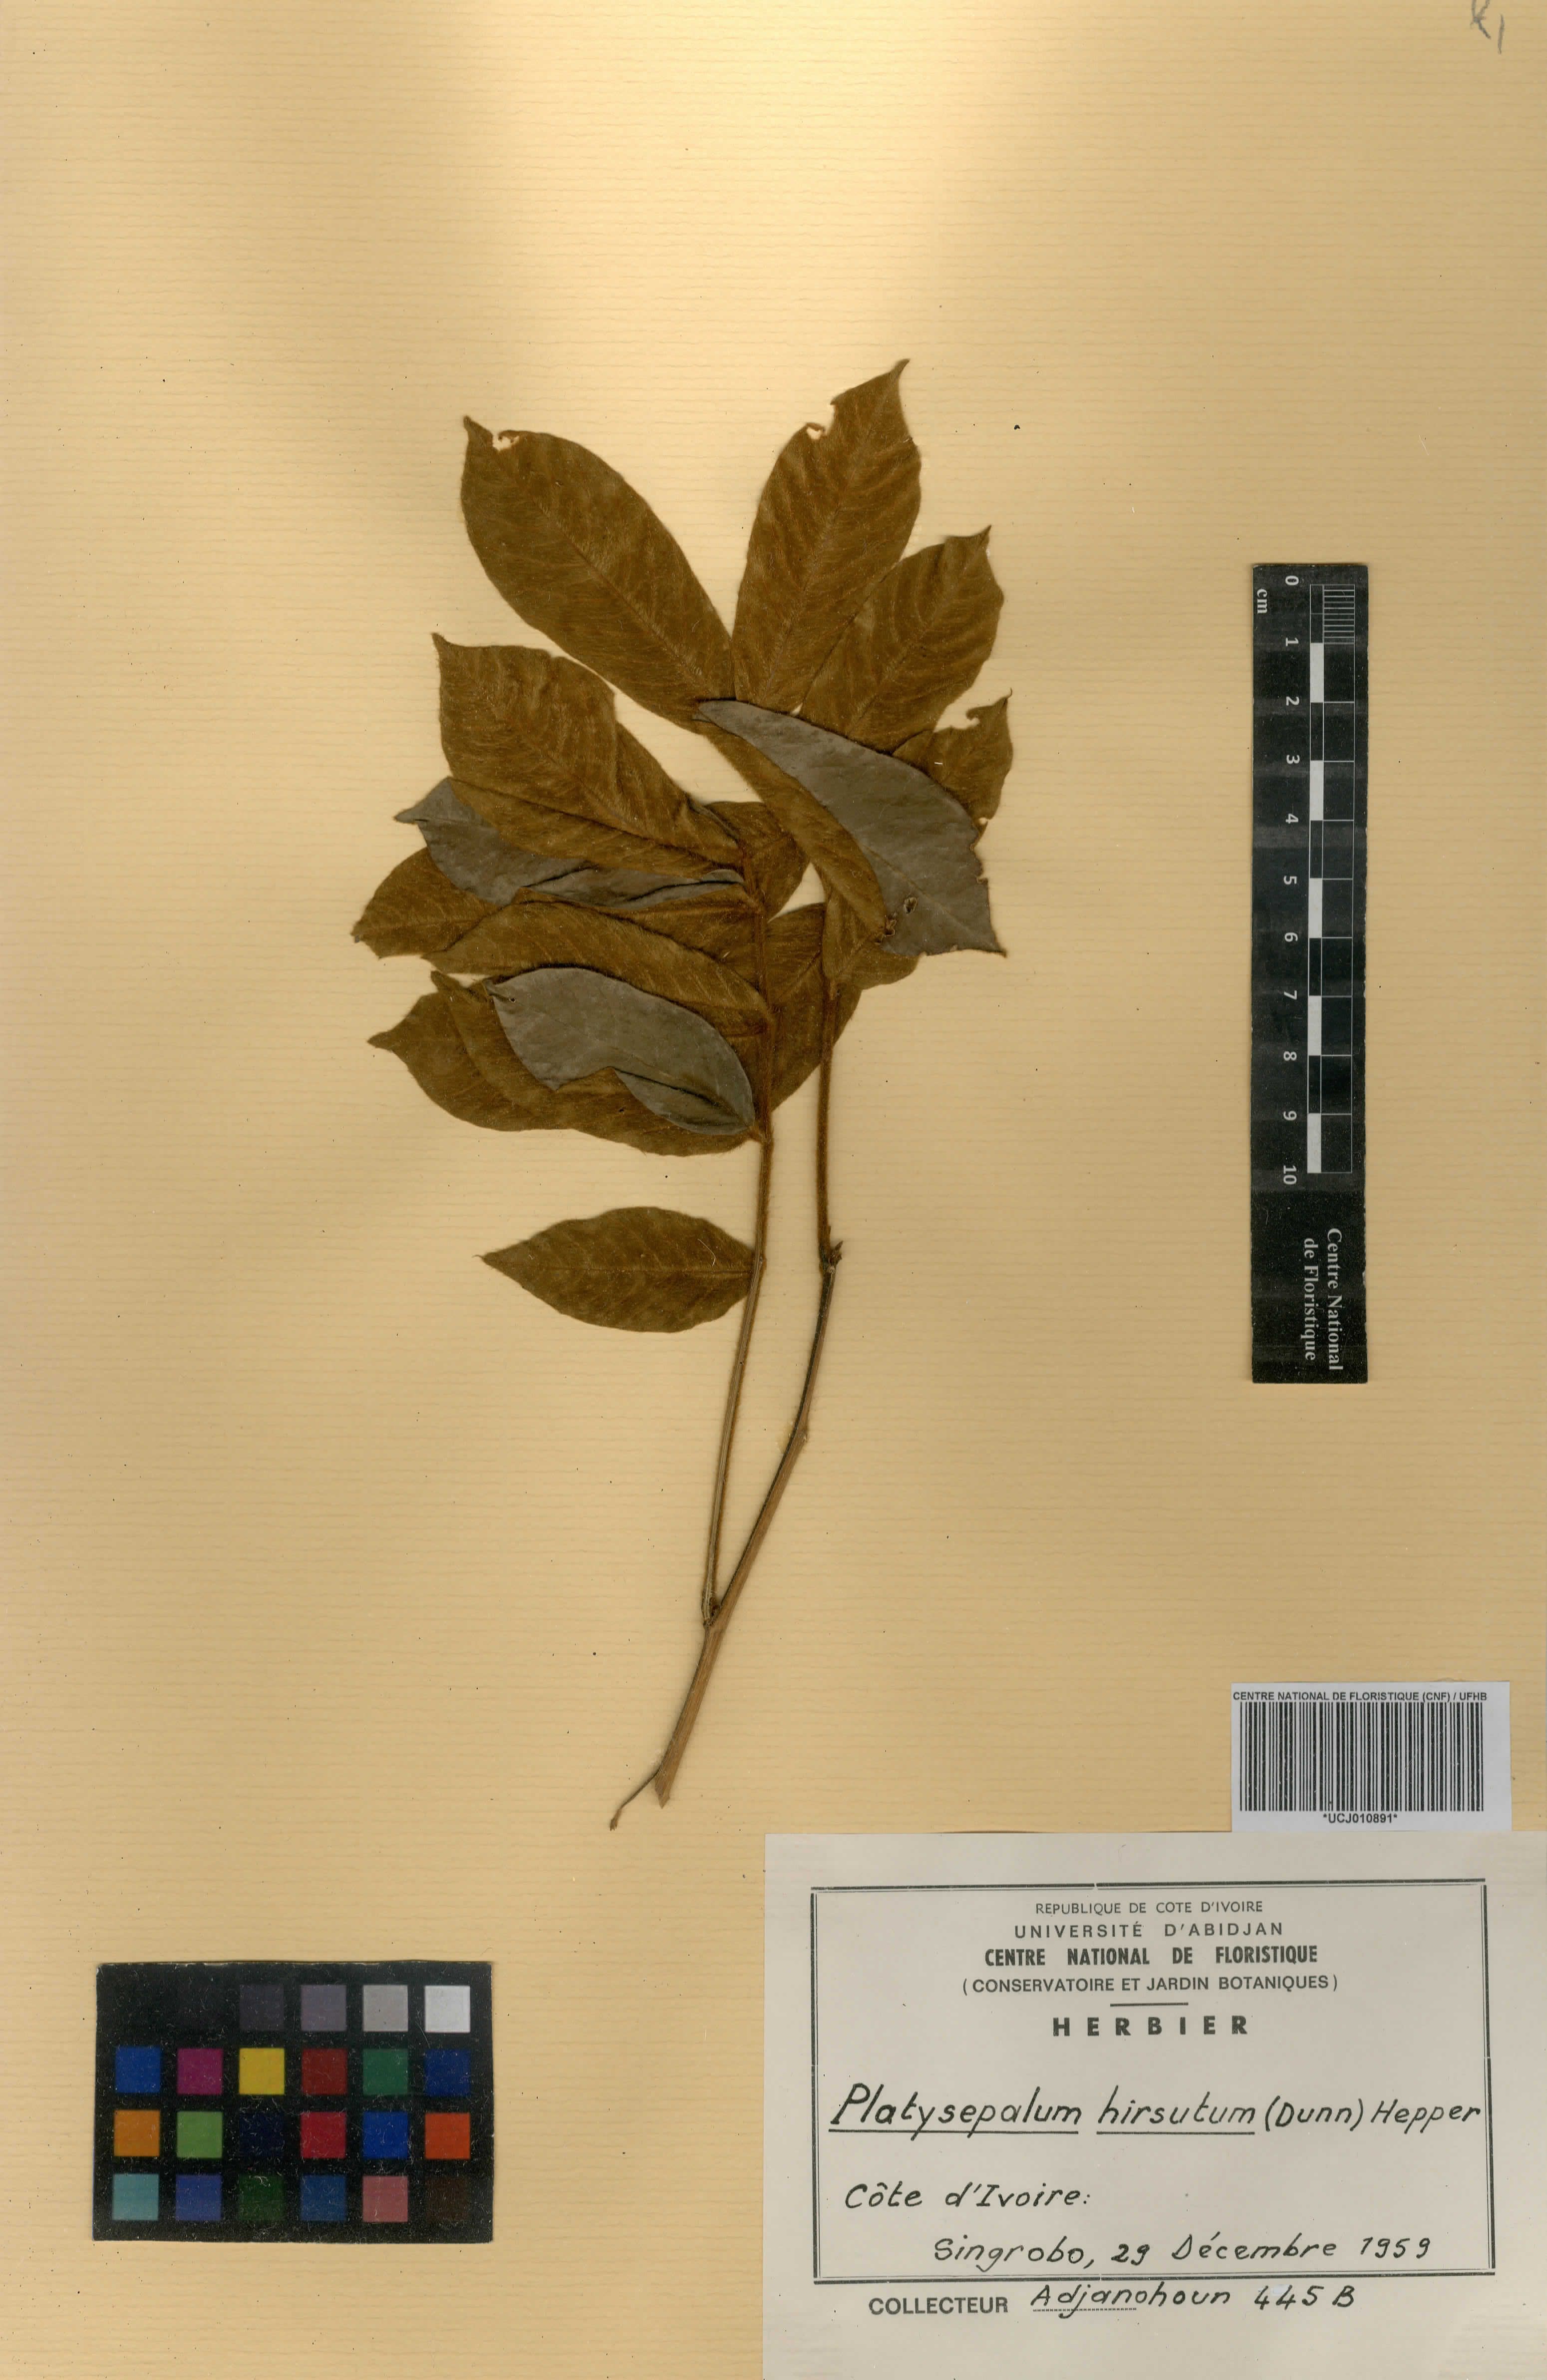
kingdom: Plantae
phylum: Tracheophyta
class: Magnoliopsida
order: Fabales
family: Fabaceae
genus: Platysepalum
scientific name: Platysepalum hirsutum
